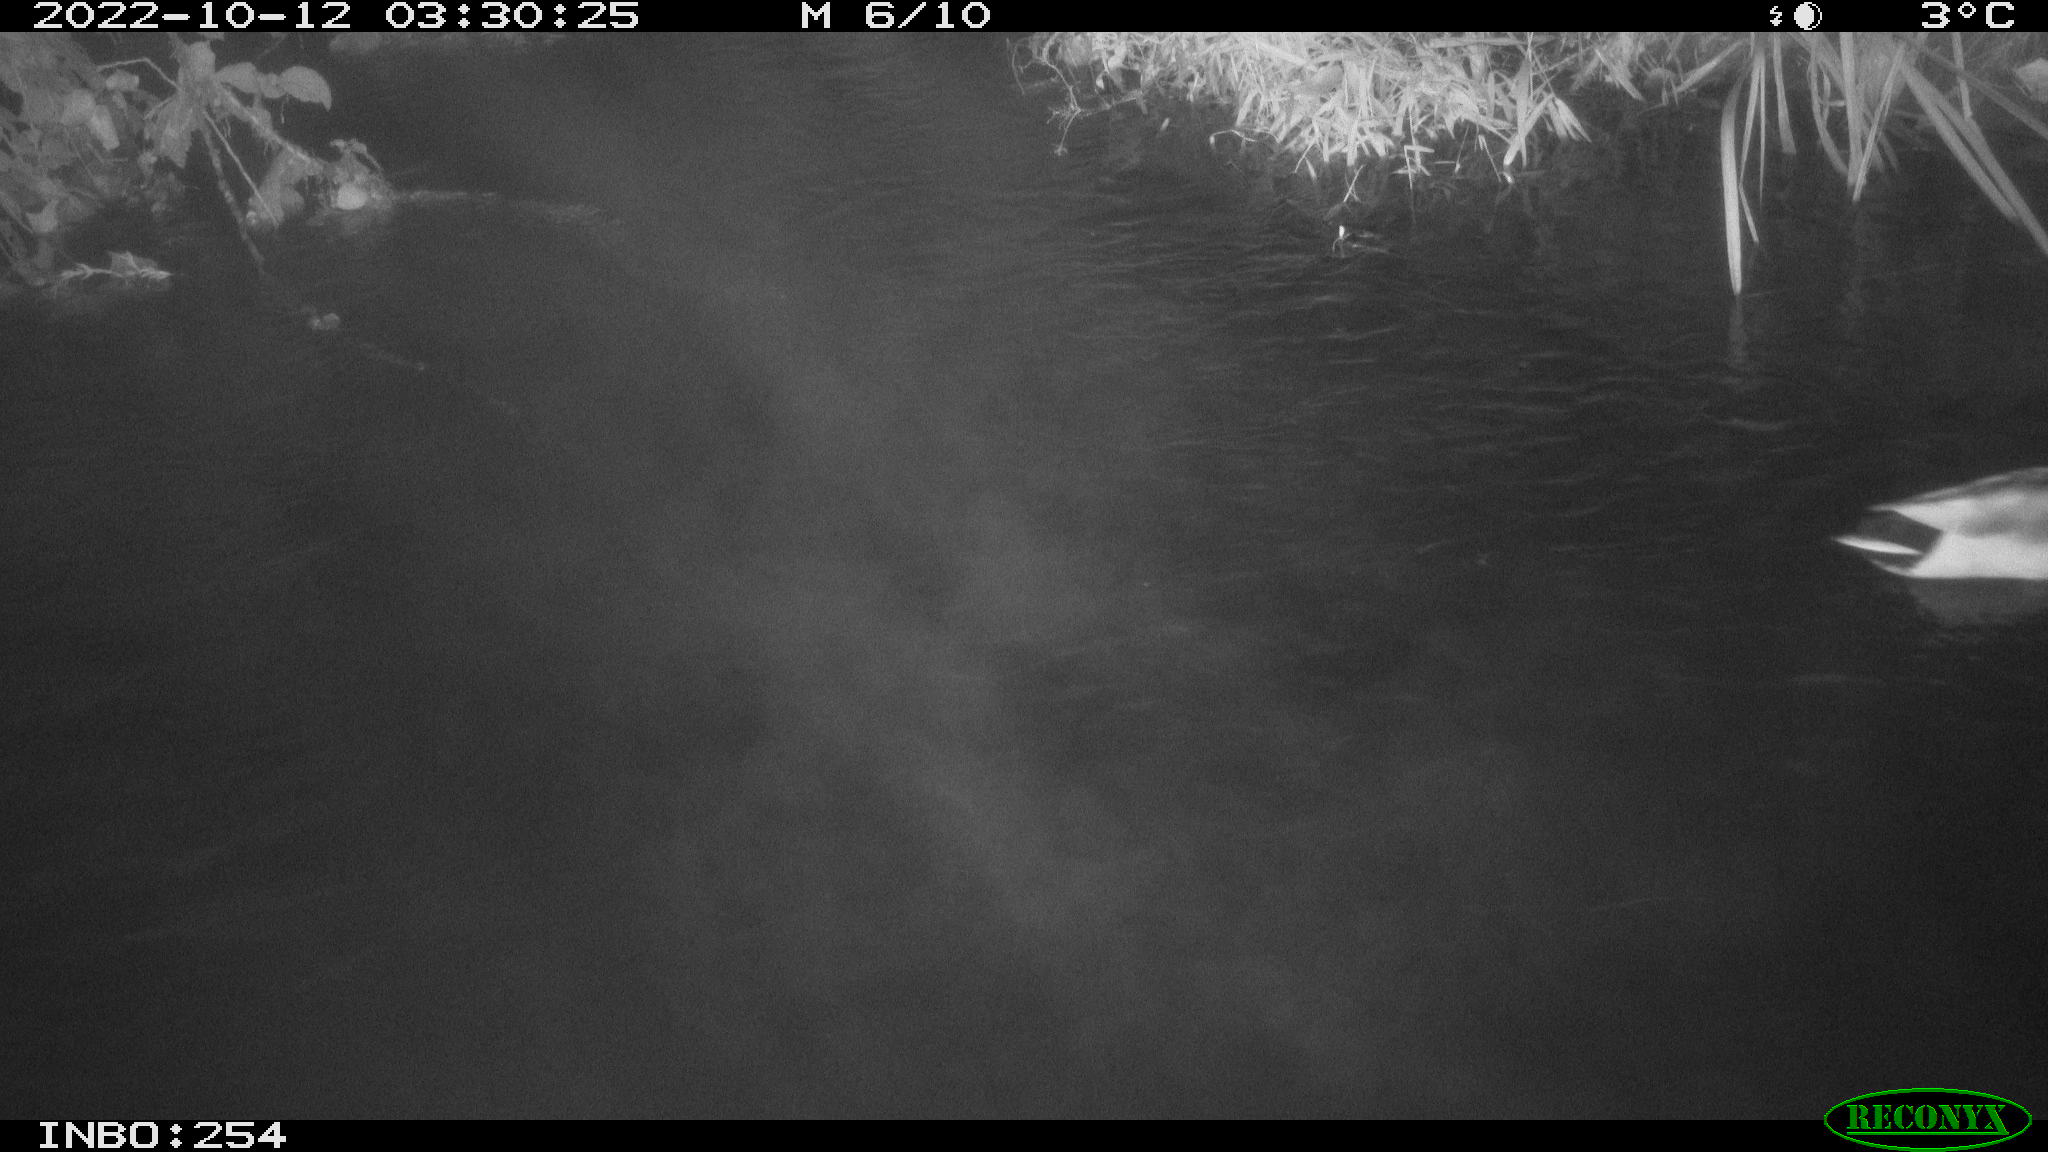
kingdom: Animalia
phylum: Chordata
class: Aves
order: Anseriformes
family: Anatidae
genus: Anas
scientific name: Anas
